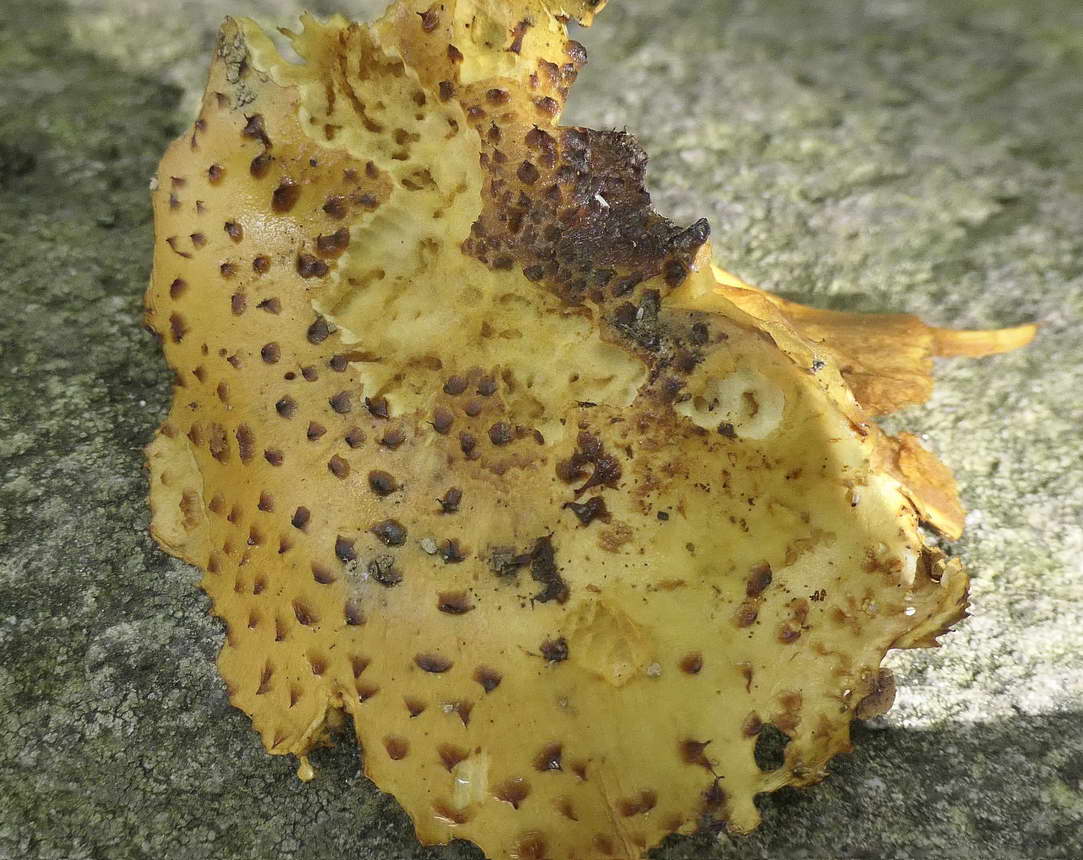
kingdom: Fungi
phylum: Basidiomycota
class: Agaricomycetes
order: Agaricales
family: Strophariaceae
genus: Pholiota
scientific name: Pholiota jahnii
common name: slimet skælhat
